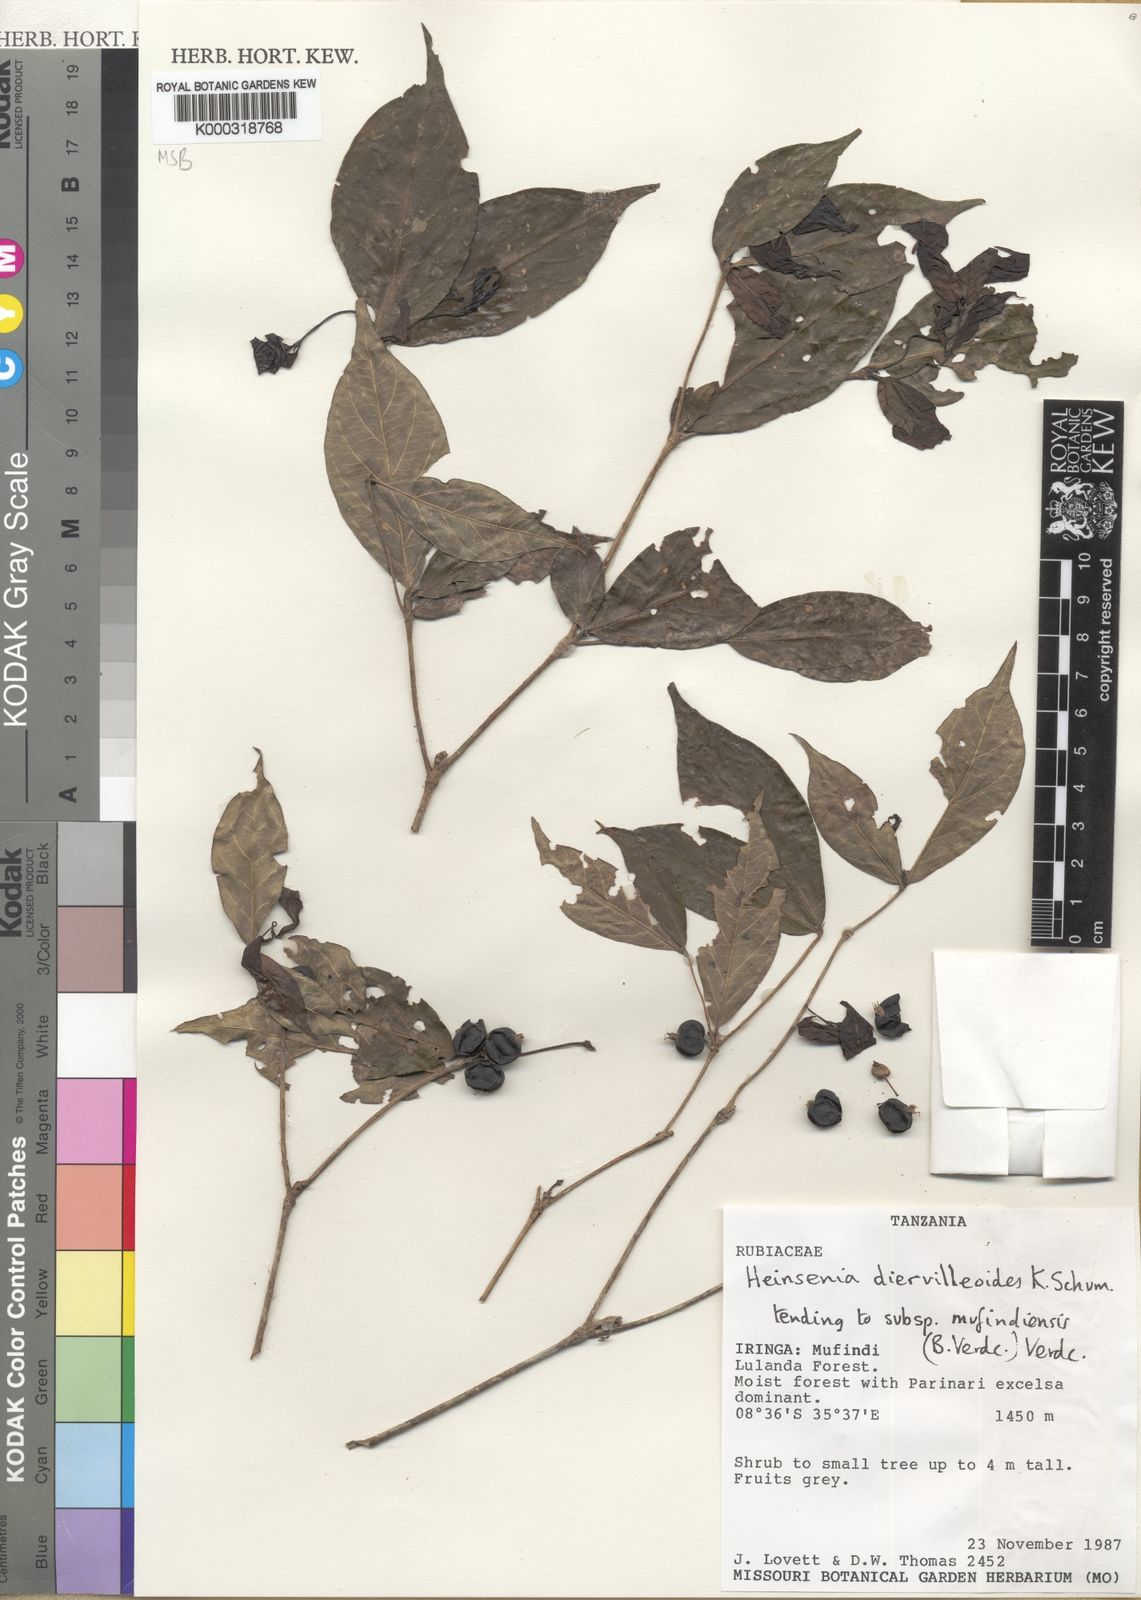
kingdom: Plantae
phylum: Tracheophyta
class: Magnoliopsida
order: Gentianales
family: Rubiaceae
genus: Heinsenia
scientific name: Heinsenia diervilleoides
